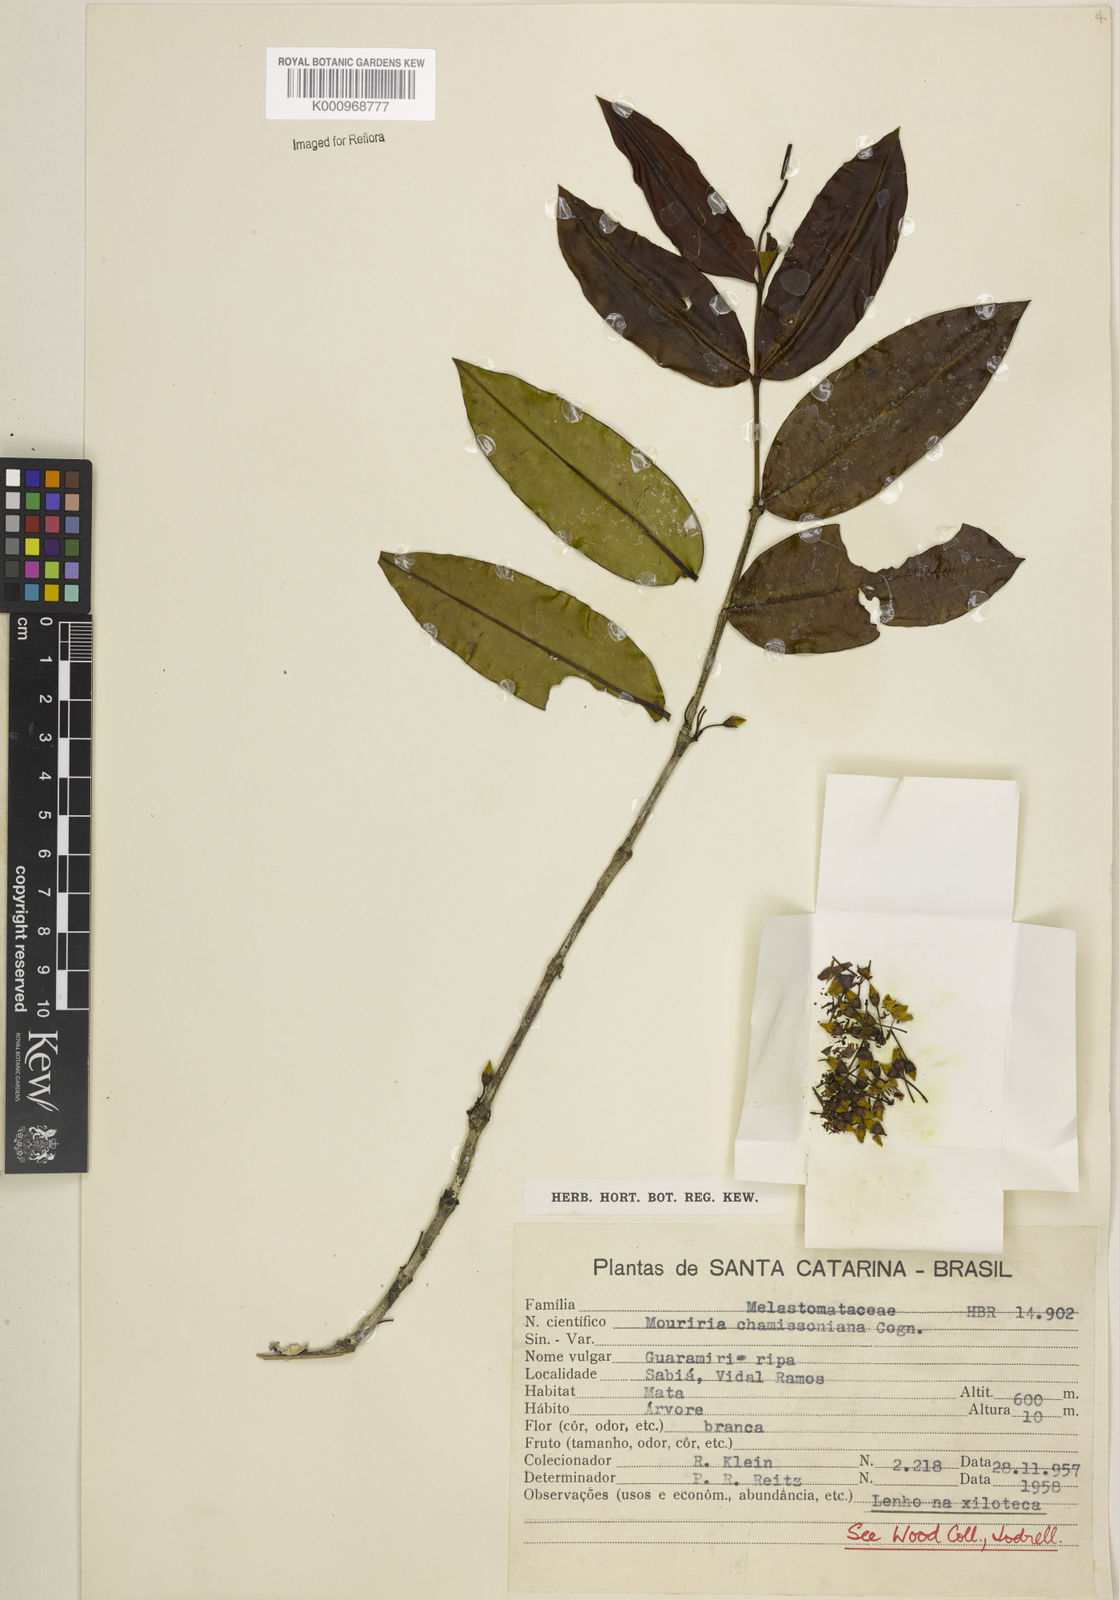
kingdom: Plantae
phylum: Tracheophyta
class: Magnoliopsida
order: Myrtales
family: Melastomataceae
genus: Mouriri
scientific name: Mouriri chamissoana
